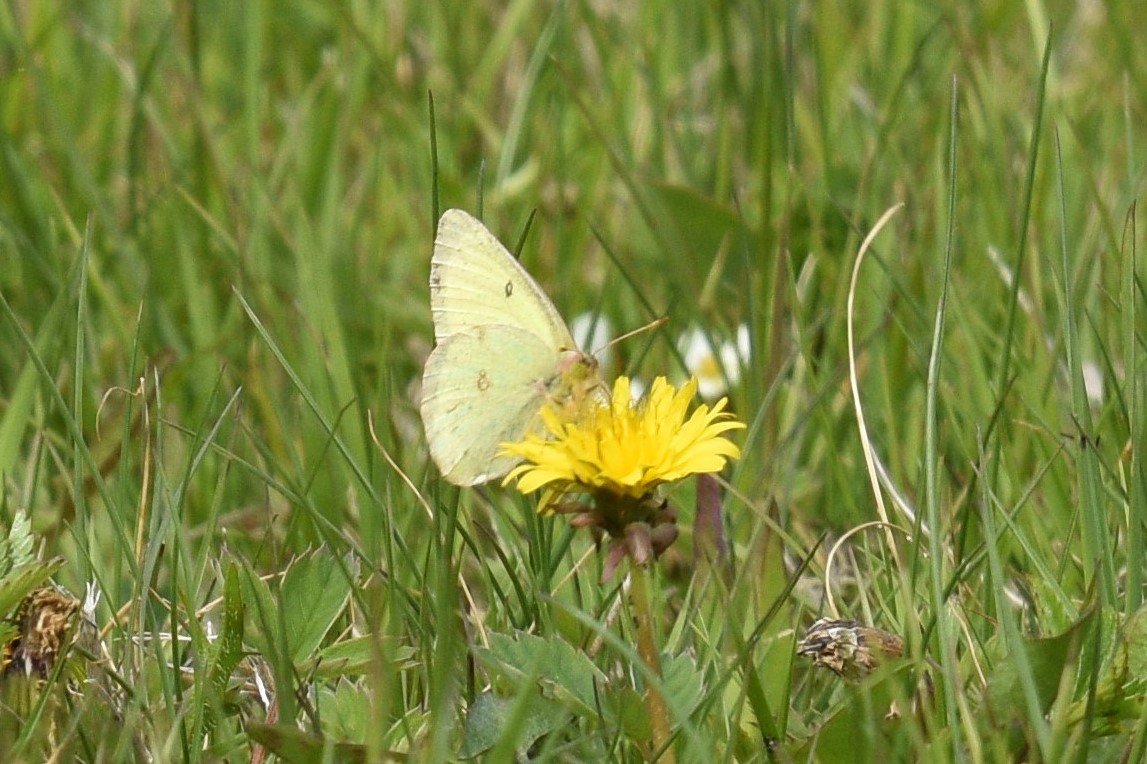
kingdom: Animalia
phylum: Arthropoda
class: Insecta
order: Lepidoptera
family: Pieridae
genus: Colias
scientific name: Colias philodice
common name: Clouded Sulphur
